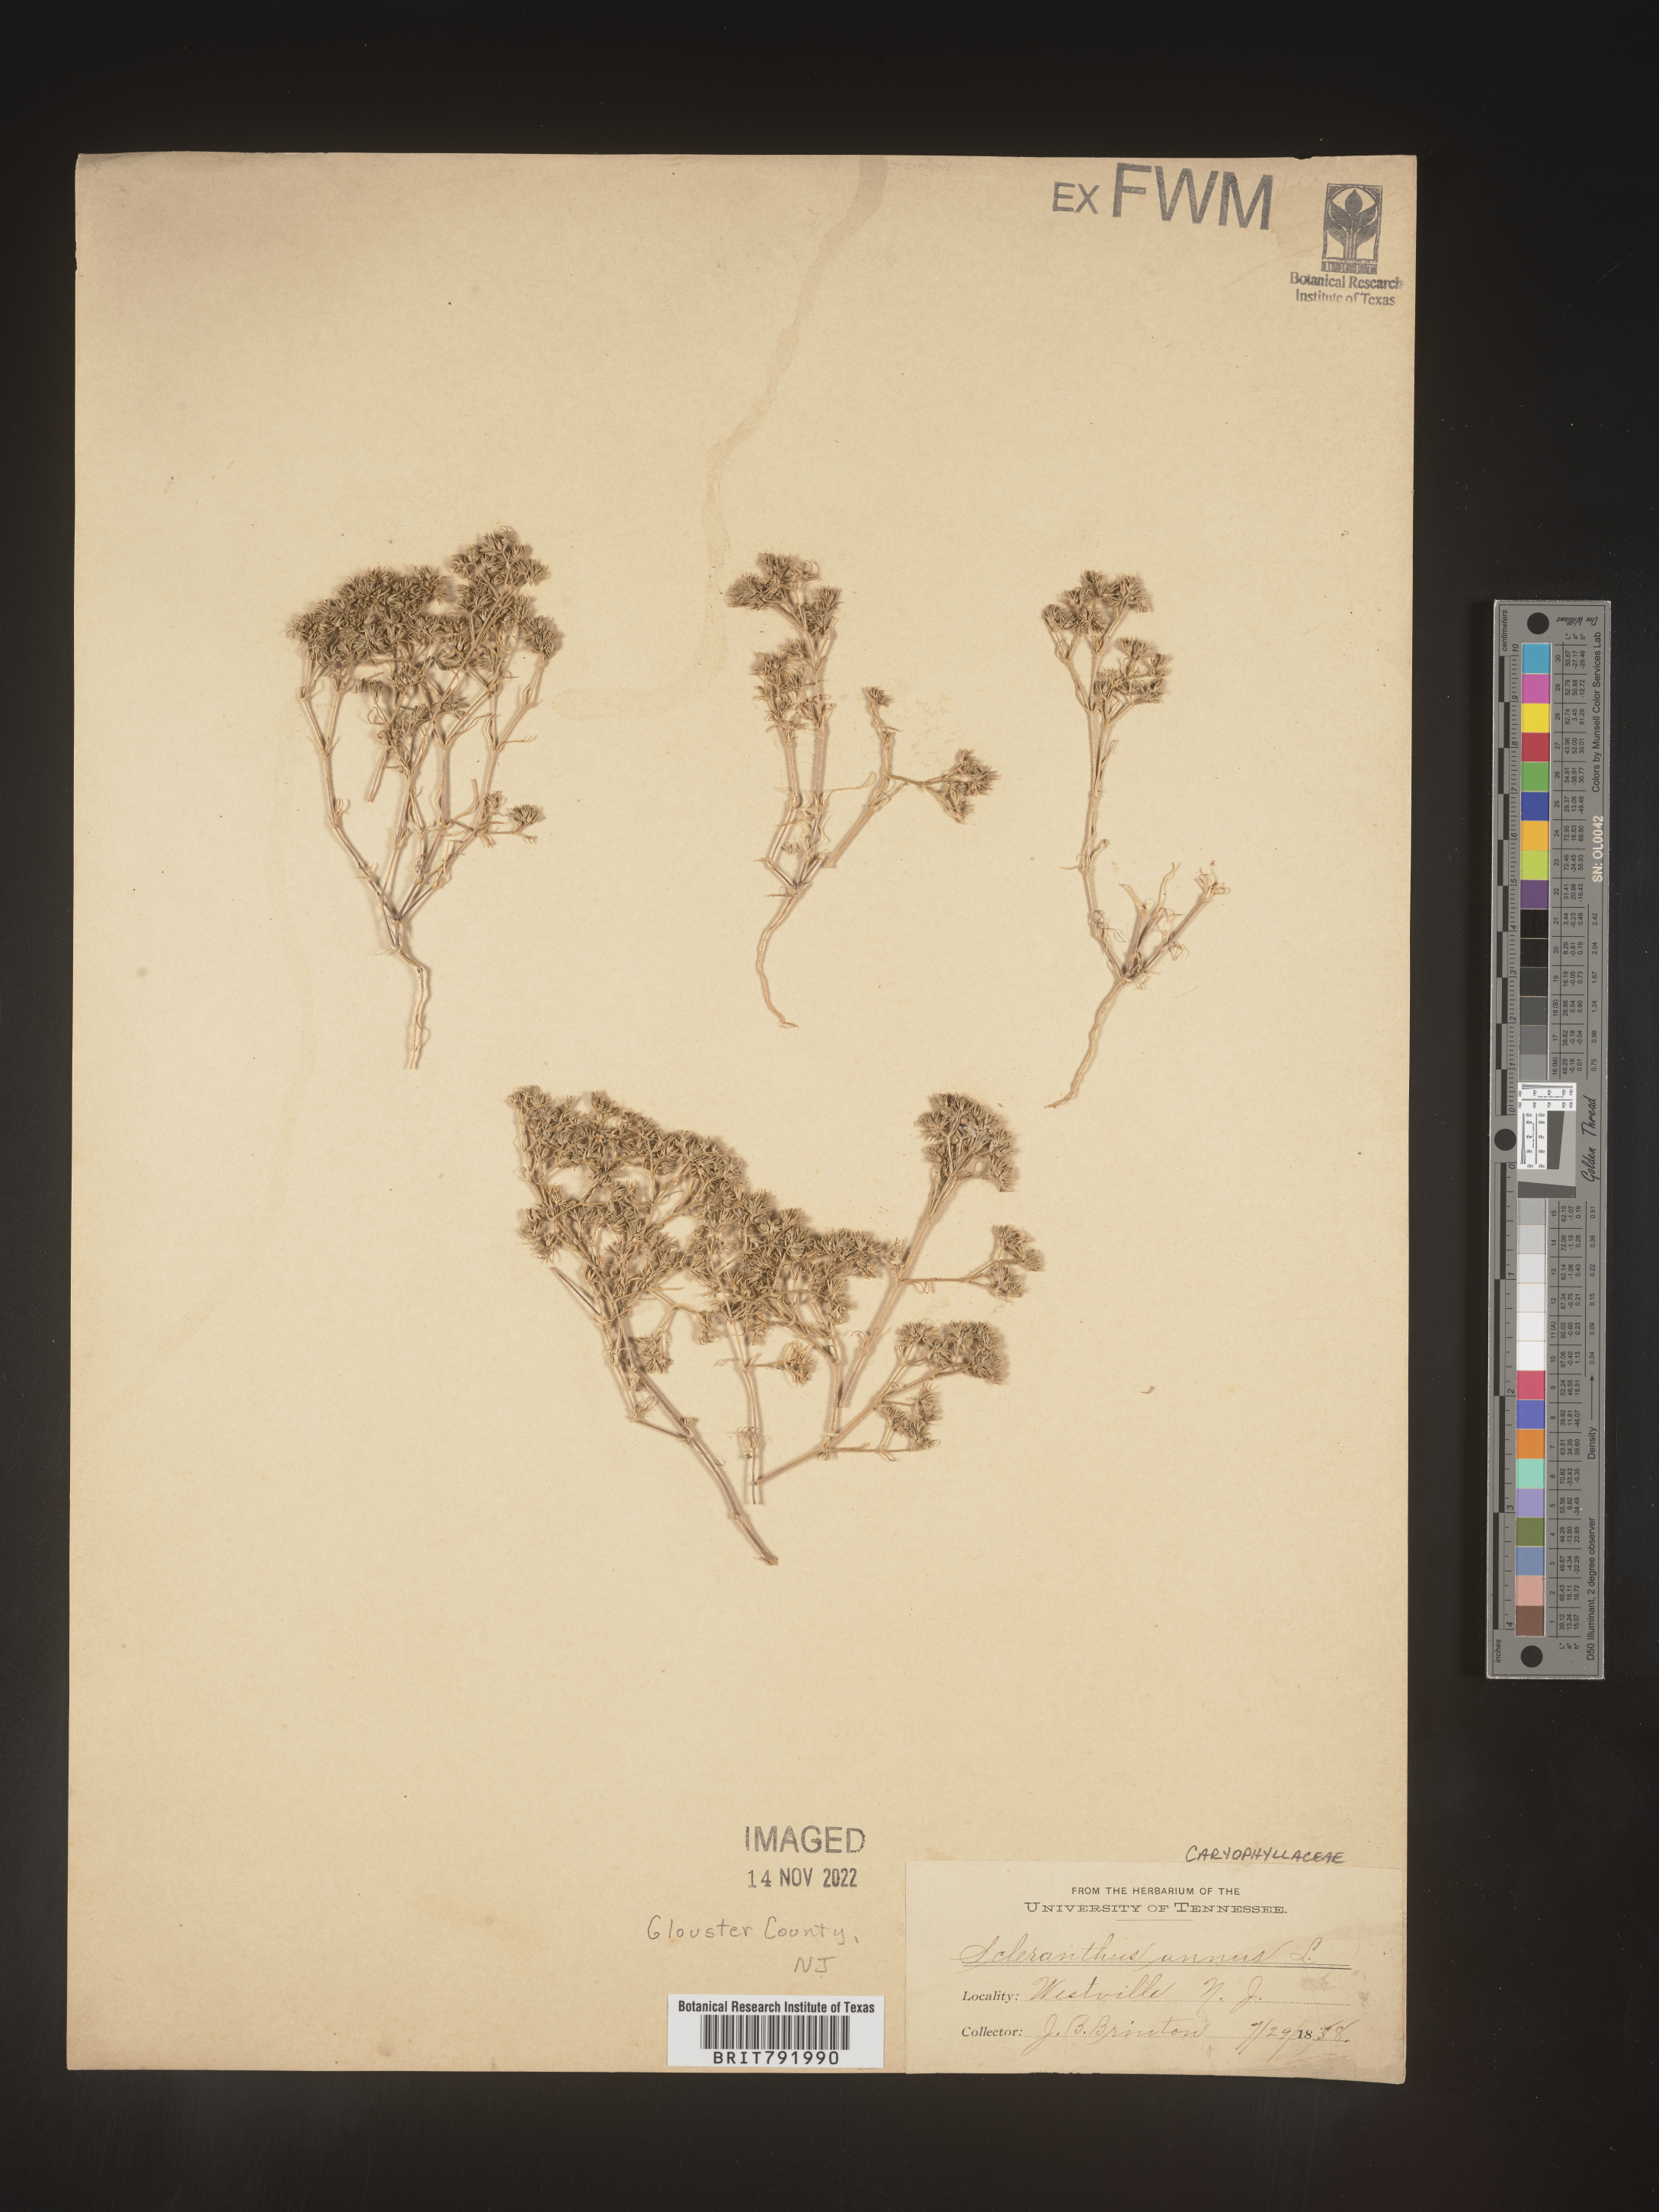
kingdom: Plantae
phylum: Tracheophyta
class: Magnoliopsida
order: Caryophyllales
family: Caryophyllaceae
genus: Scleranthus
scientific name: Scleranthus
